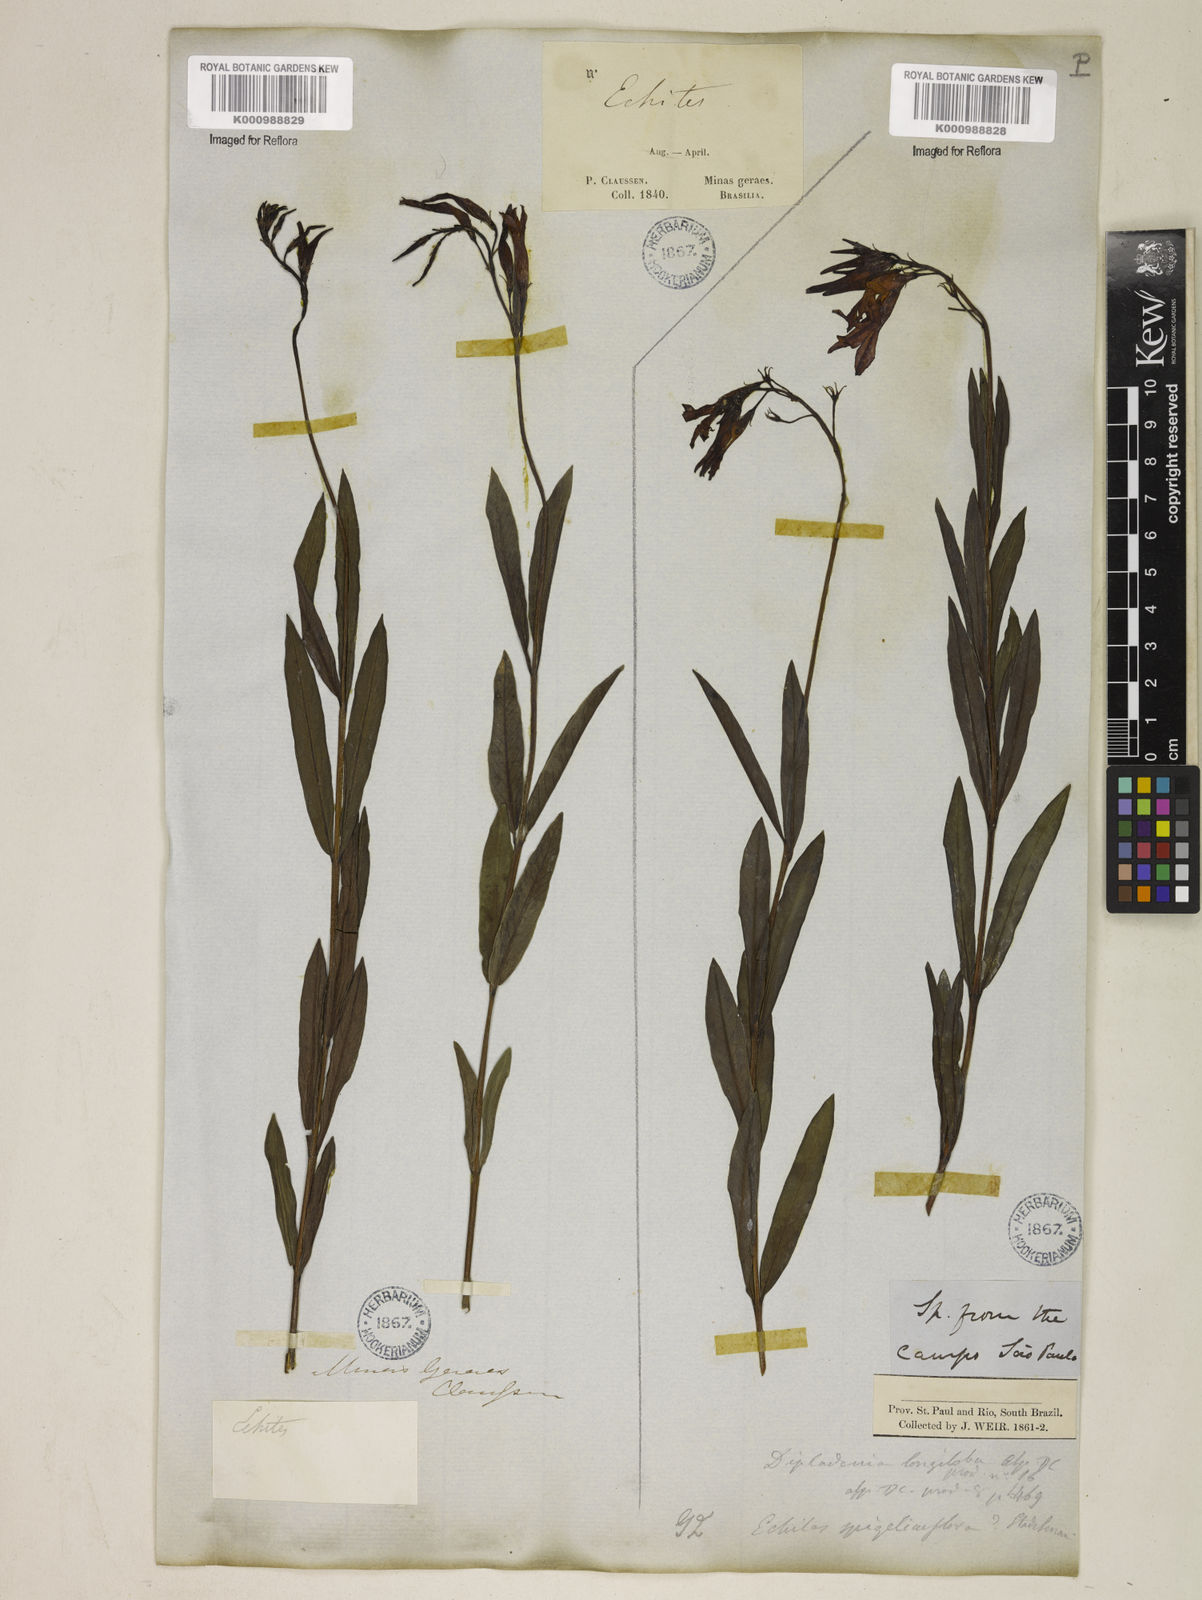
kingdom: Plantae
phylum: Tracheophyta
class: Magnoliopsida
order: Gentianales
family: Apocynaceae
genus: Mandevilla
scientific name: Mandevilla spigeliiflora
